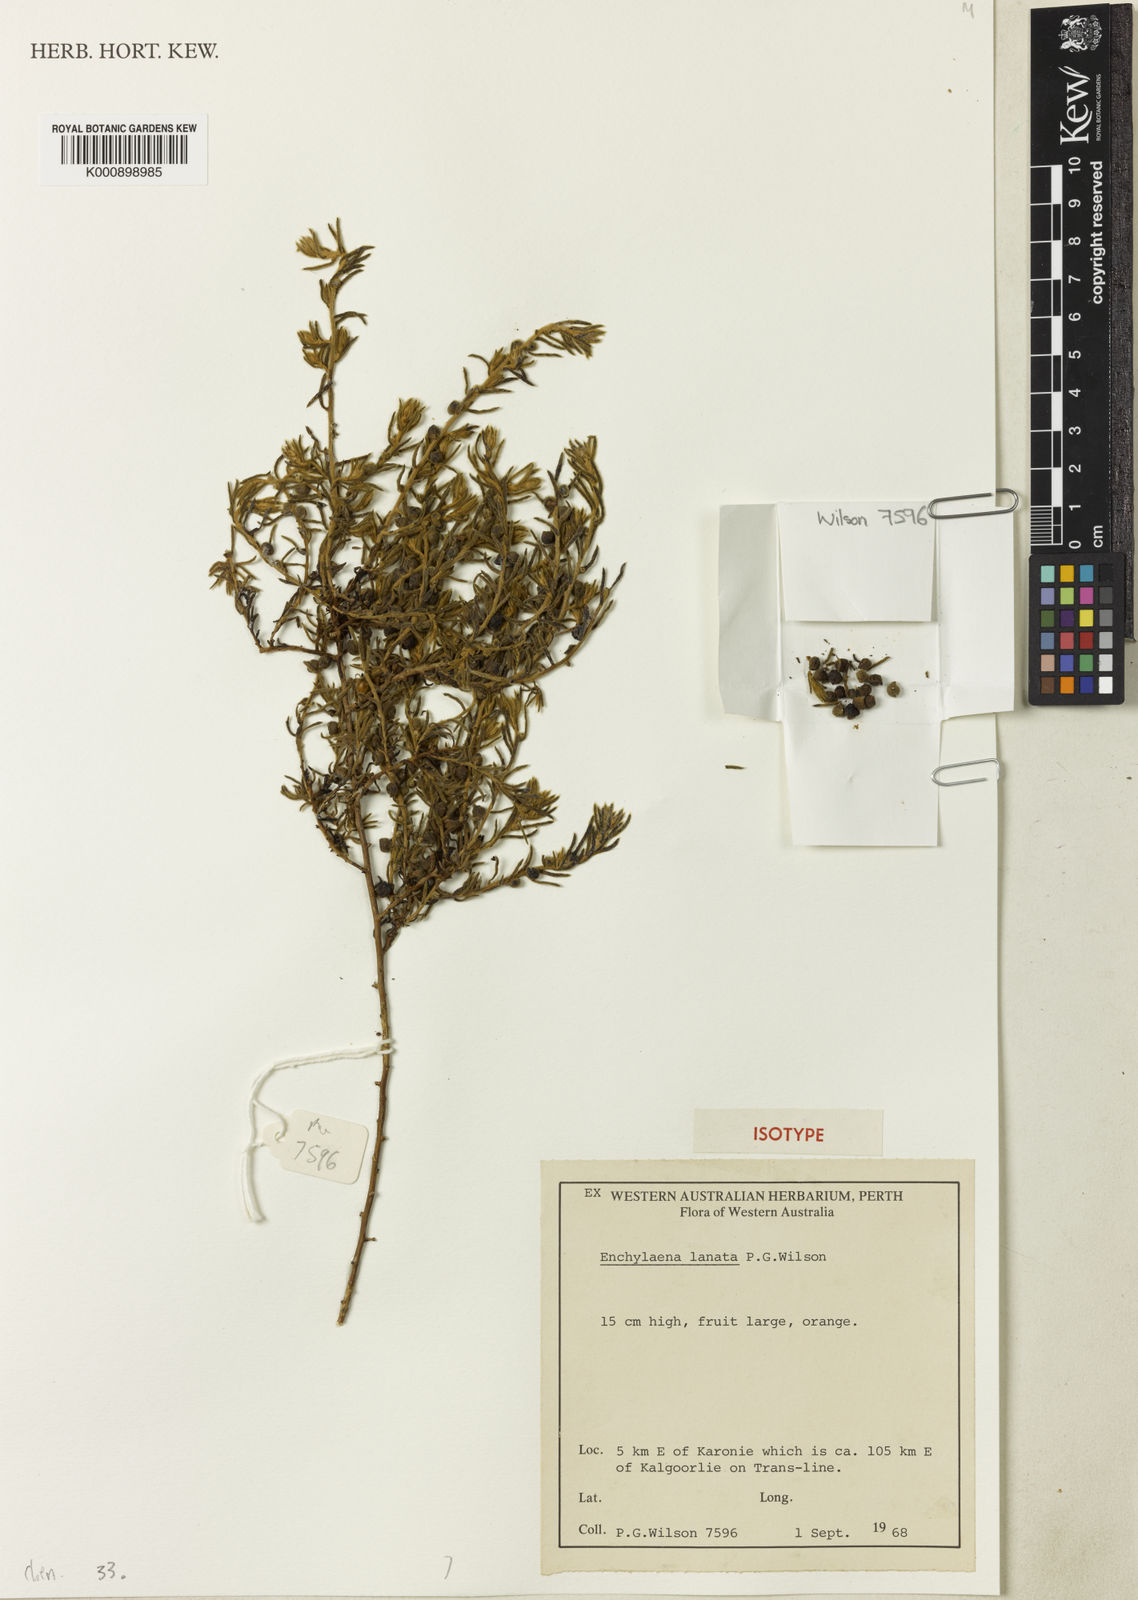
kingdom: Plantae
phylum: Tracheophyta
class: Magnoliopsida
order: Caryophyllales
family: Amaranthaceae
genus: Enchylaena
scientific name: Enchylaena lanata
